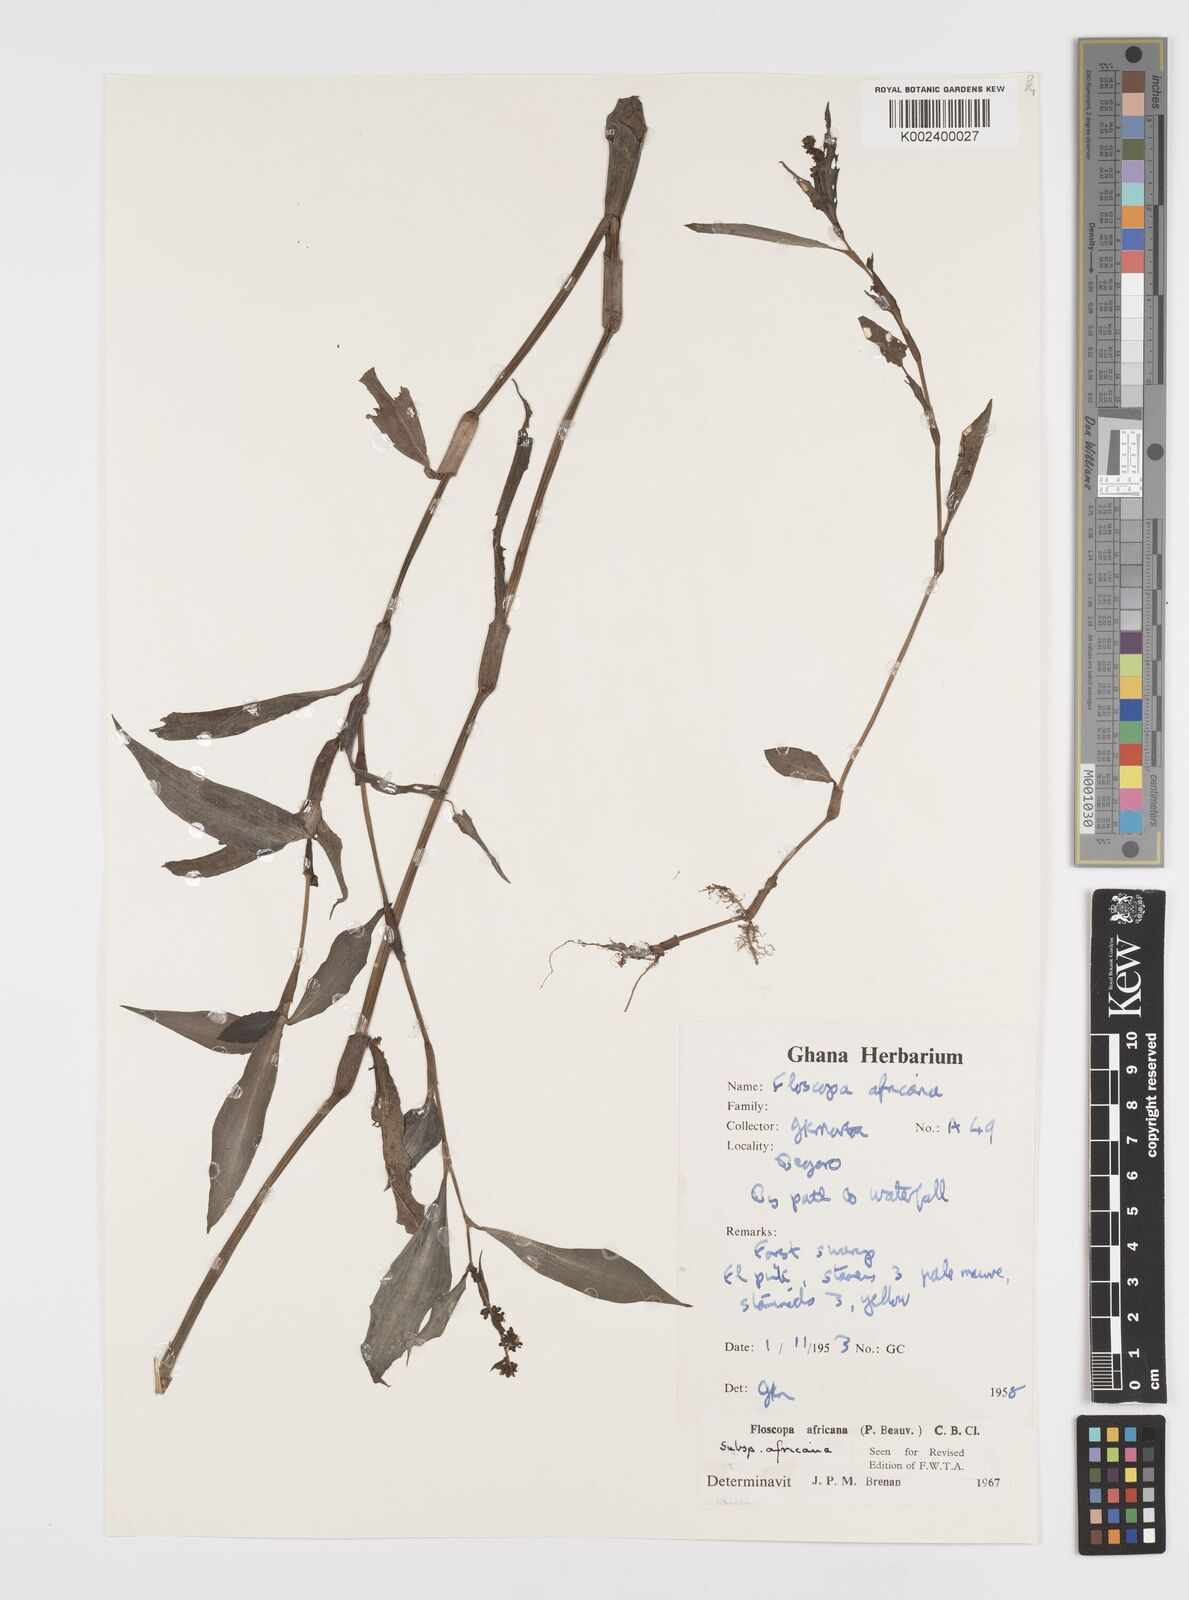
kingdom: Plantae
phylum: Tracheophyta
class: Liliopsida
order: Commelinales
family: Commelinaceae
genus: Floscopa
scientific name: Floscopa africana
